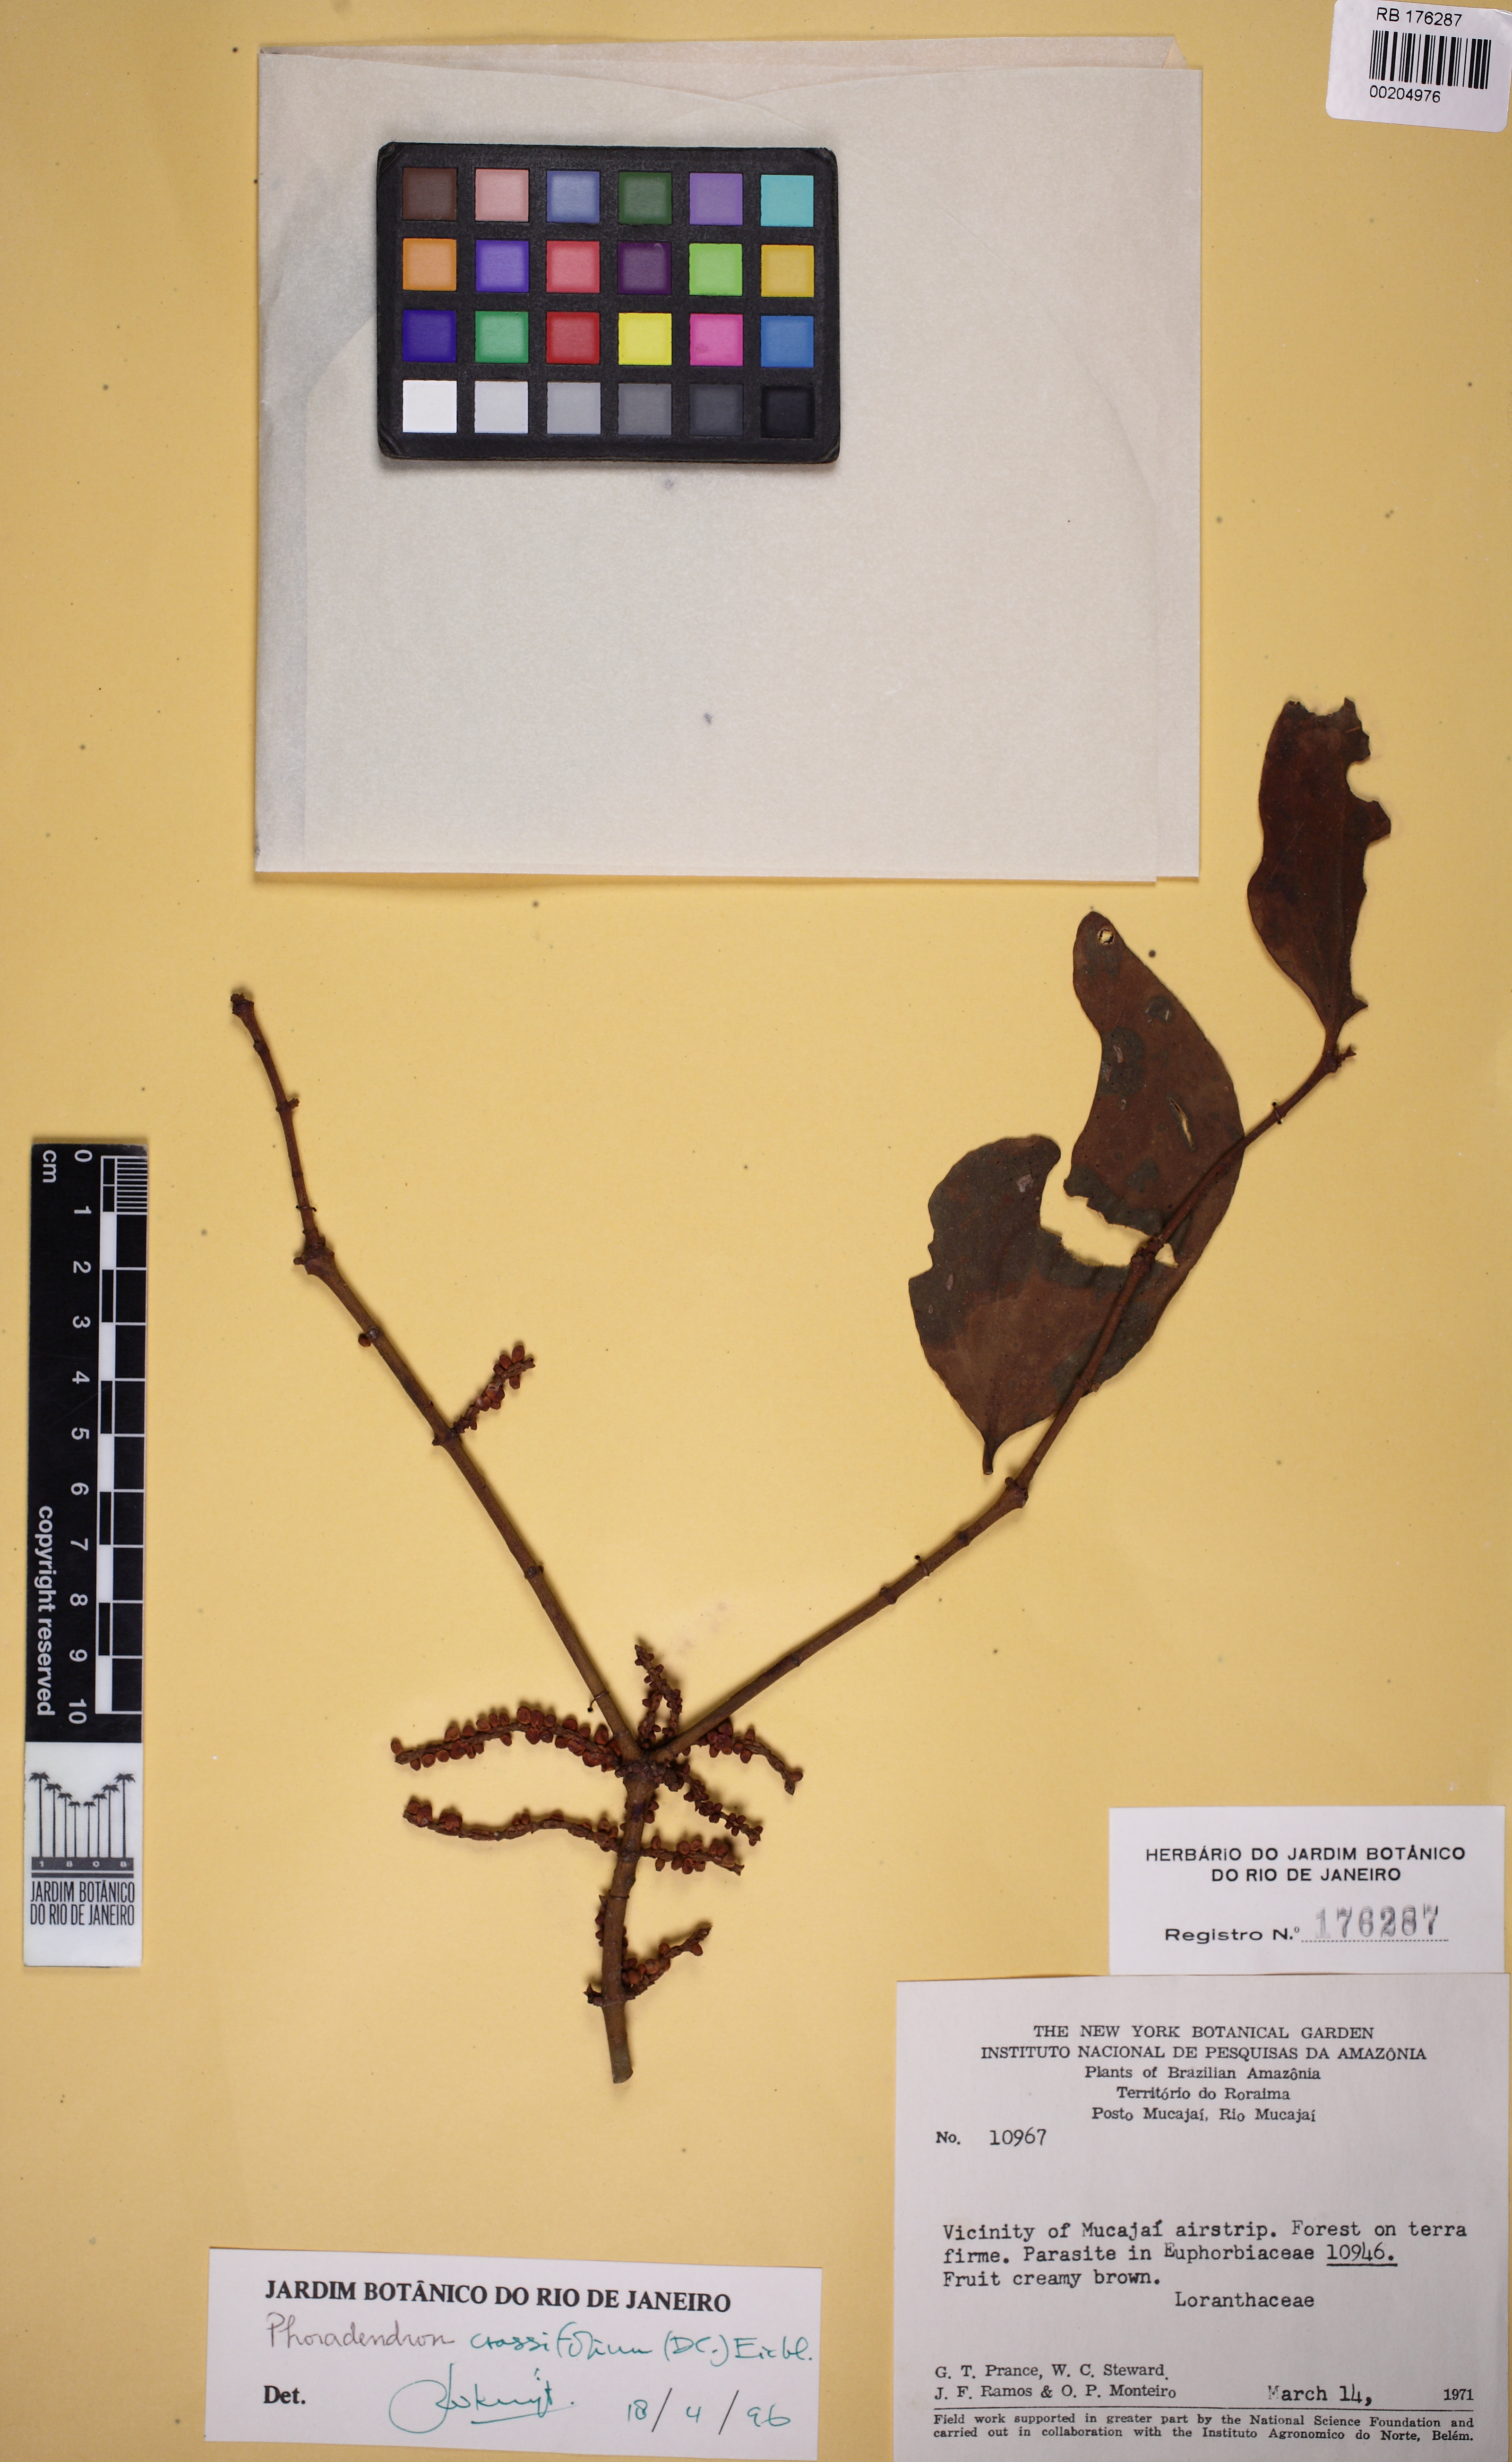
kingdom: Plantae
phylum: Tracheophyta
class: Magnoliopsida
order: Santalales
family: Viscaceae
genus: Phoradendron
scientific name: Phoradendron crassifolium
